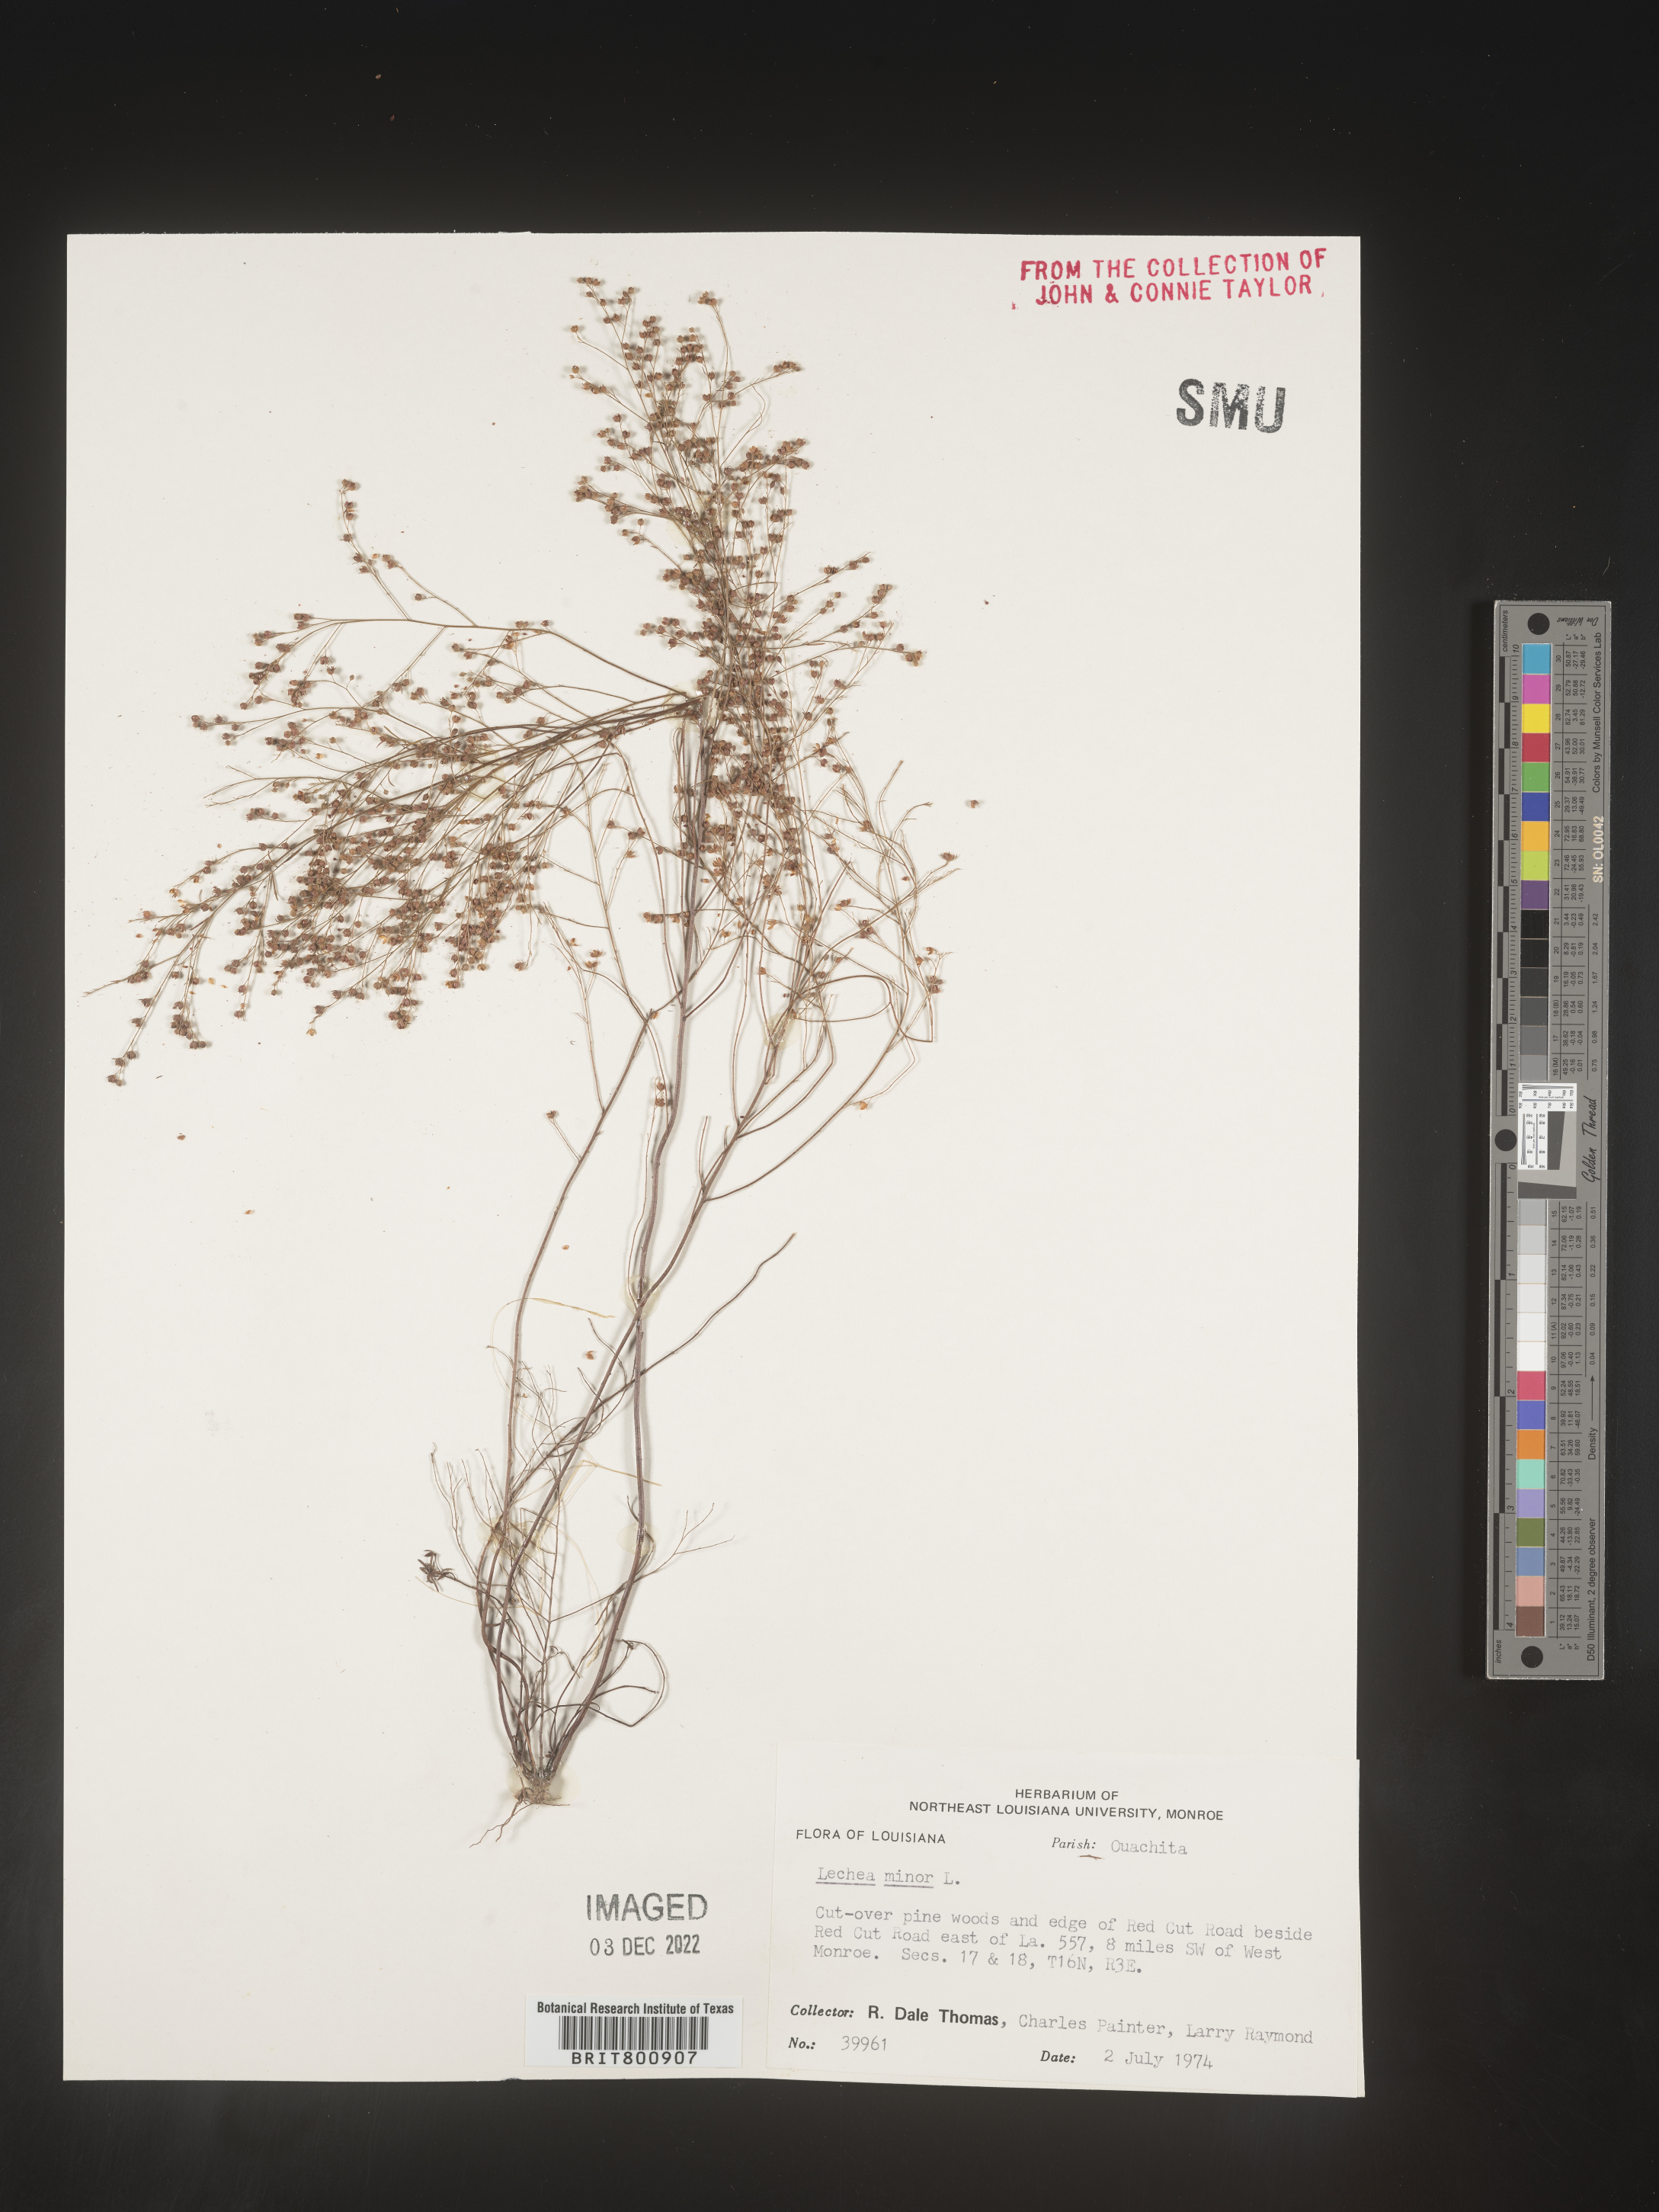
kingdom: Plantae
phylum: Tracheophyta
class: Magnoliopsida
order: Malvales
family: Cistaceae
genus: Lechea
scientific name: Lechea minor
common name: Thyme-leaf pinweed
